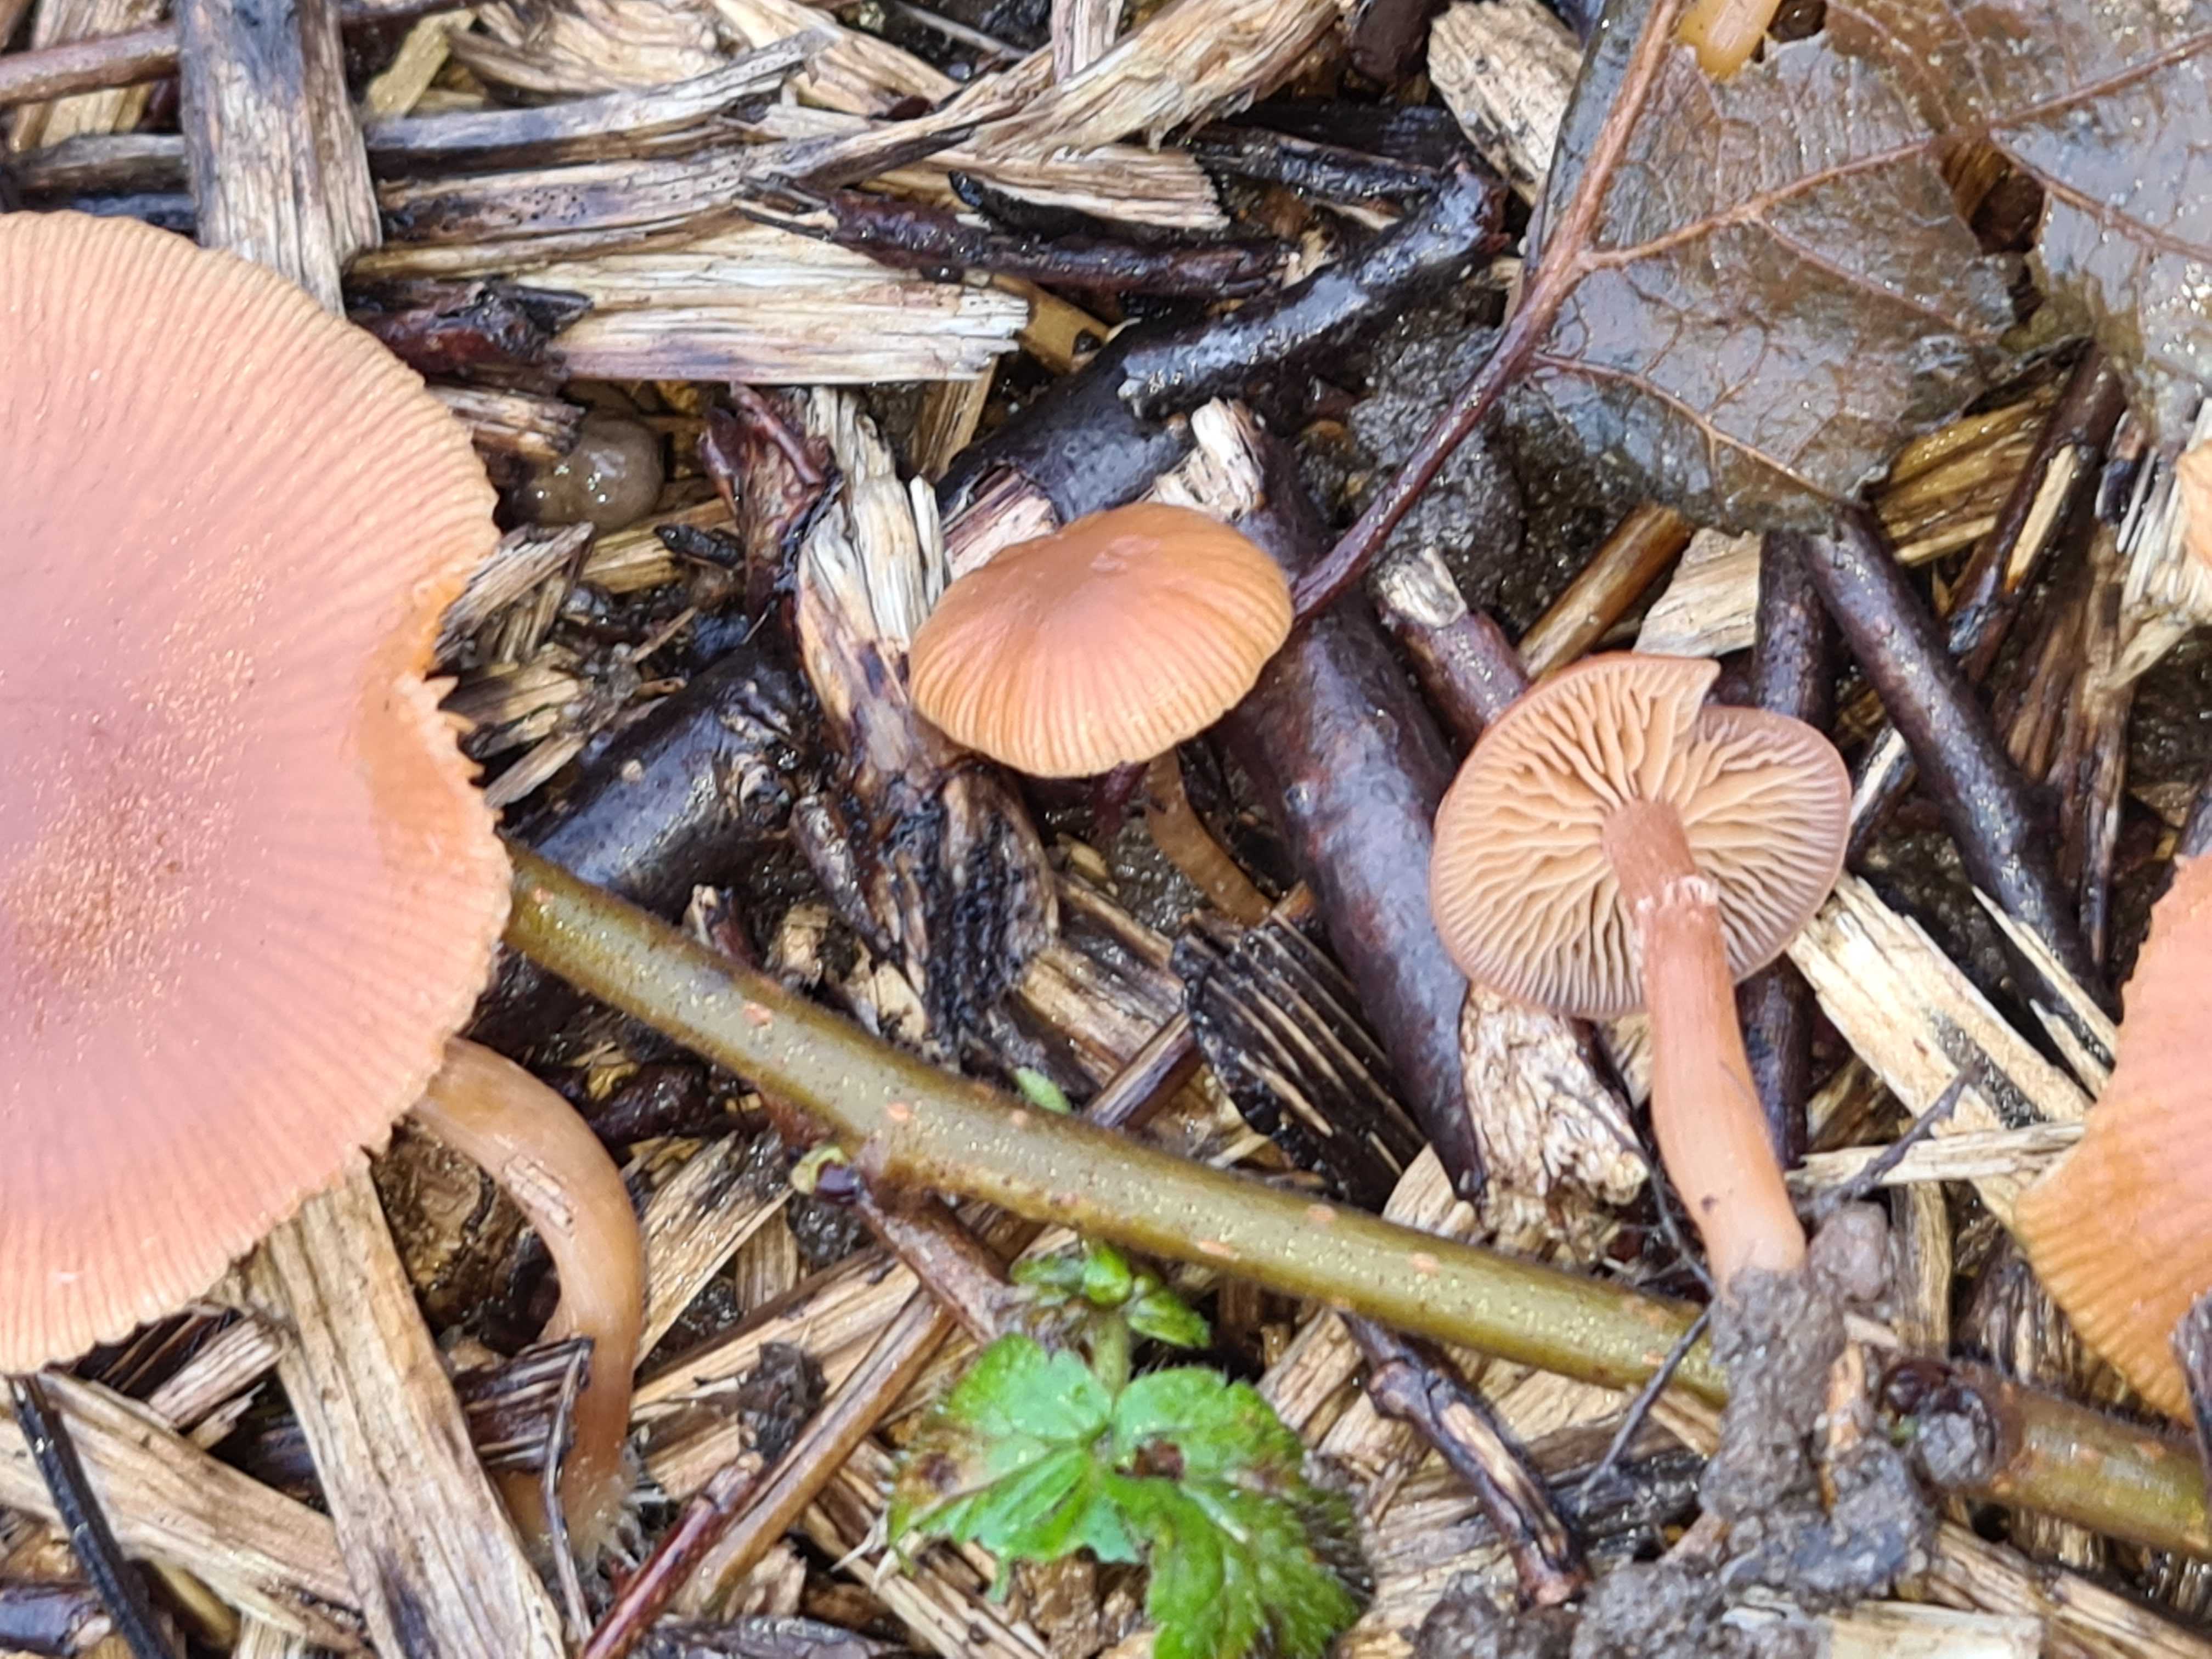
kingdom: Fungi
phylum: Basidiomycota
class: Agaricomycetes
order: Agaricales
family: Tubariaceae
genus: Tubaria
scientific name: Tubaria furfuracea
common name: kliddet fnughat
